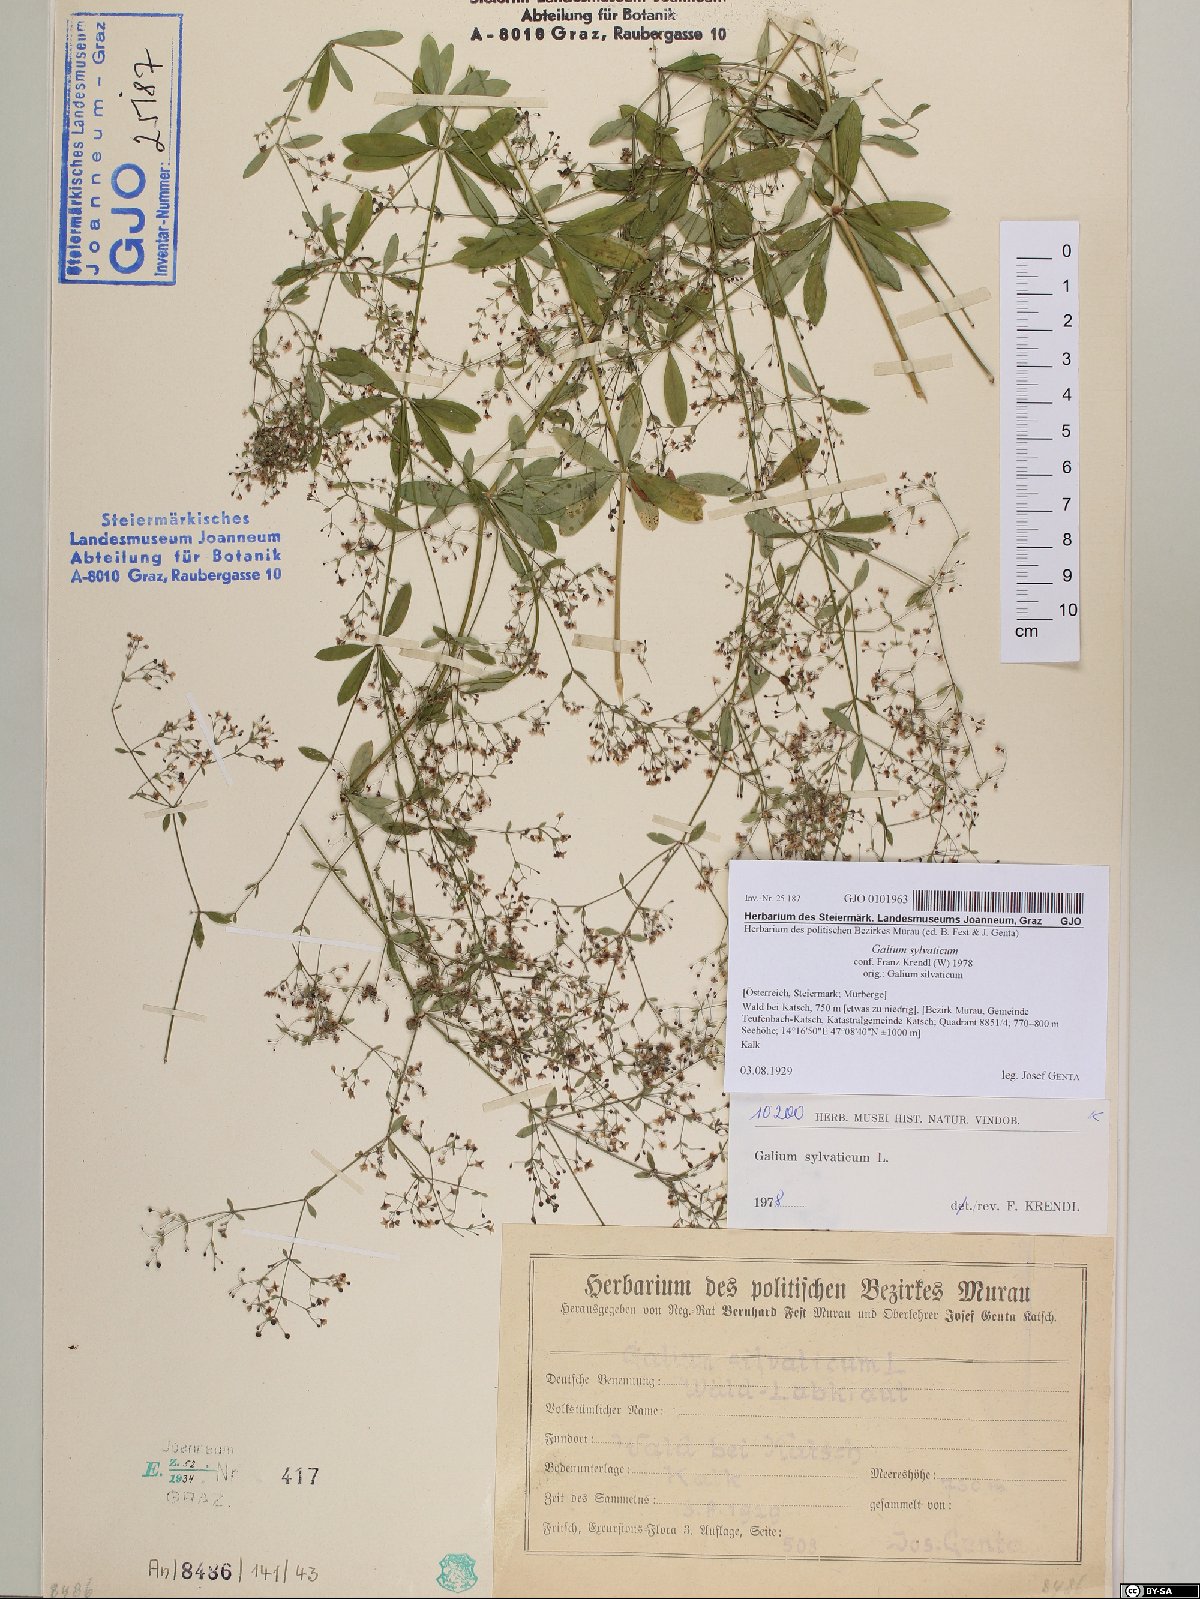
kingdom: Plantae
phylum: Tracheophyta
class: Magnoliopsida
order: Gentianales
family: Rubiaceae
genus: Galium
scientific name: Galium sylvaticum
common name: Wood bedstraw
